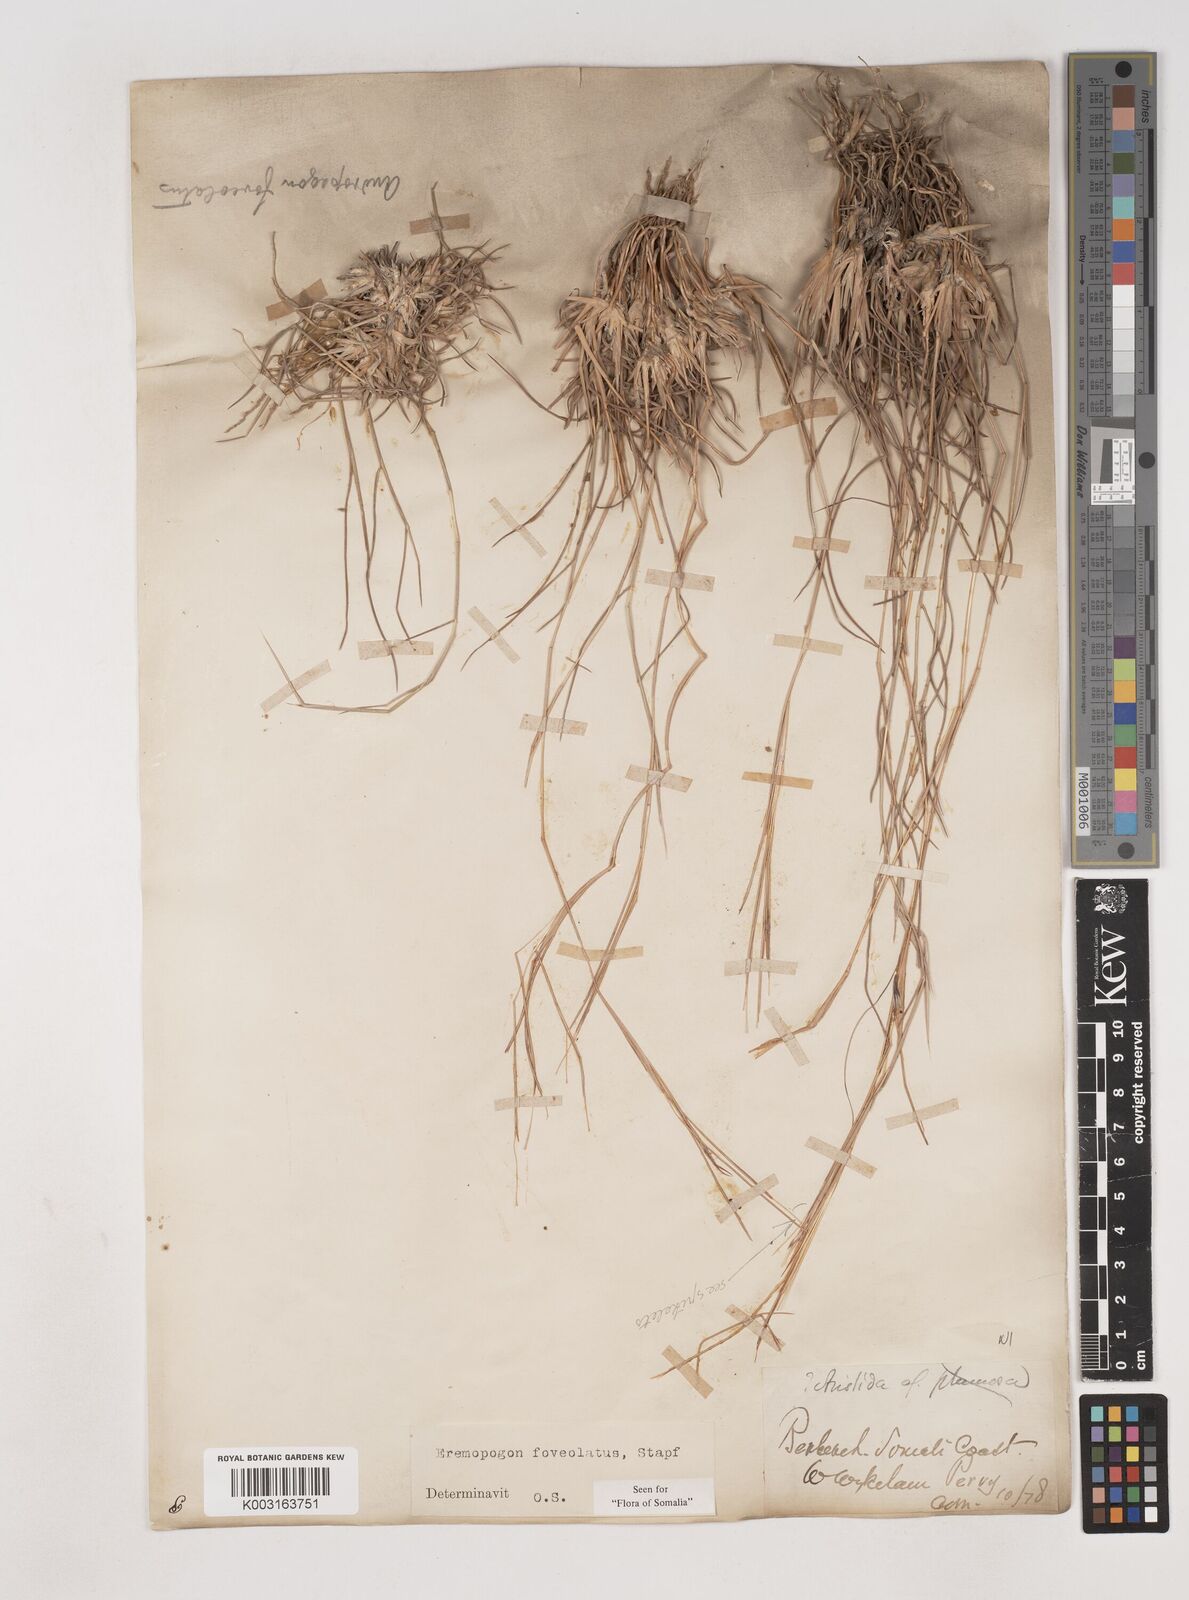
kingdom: Plantae
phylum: Tracheophyta
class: Liliopsida
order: Poales
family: Poaceae
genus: Dichanthium
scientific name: Dichanthium foveolatum
